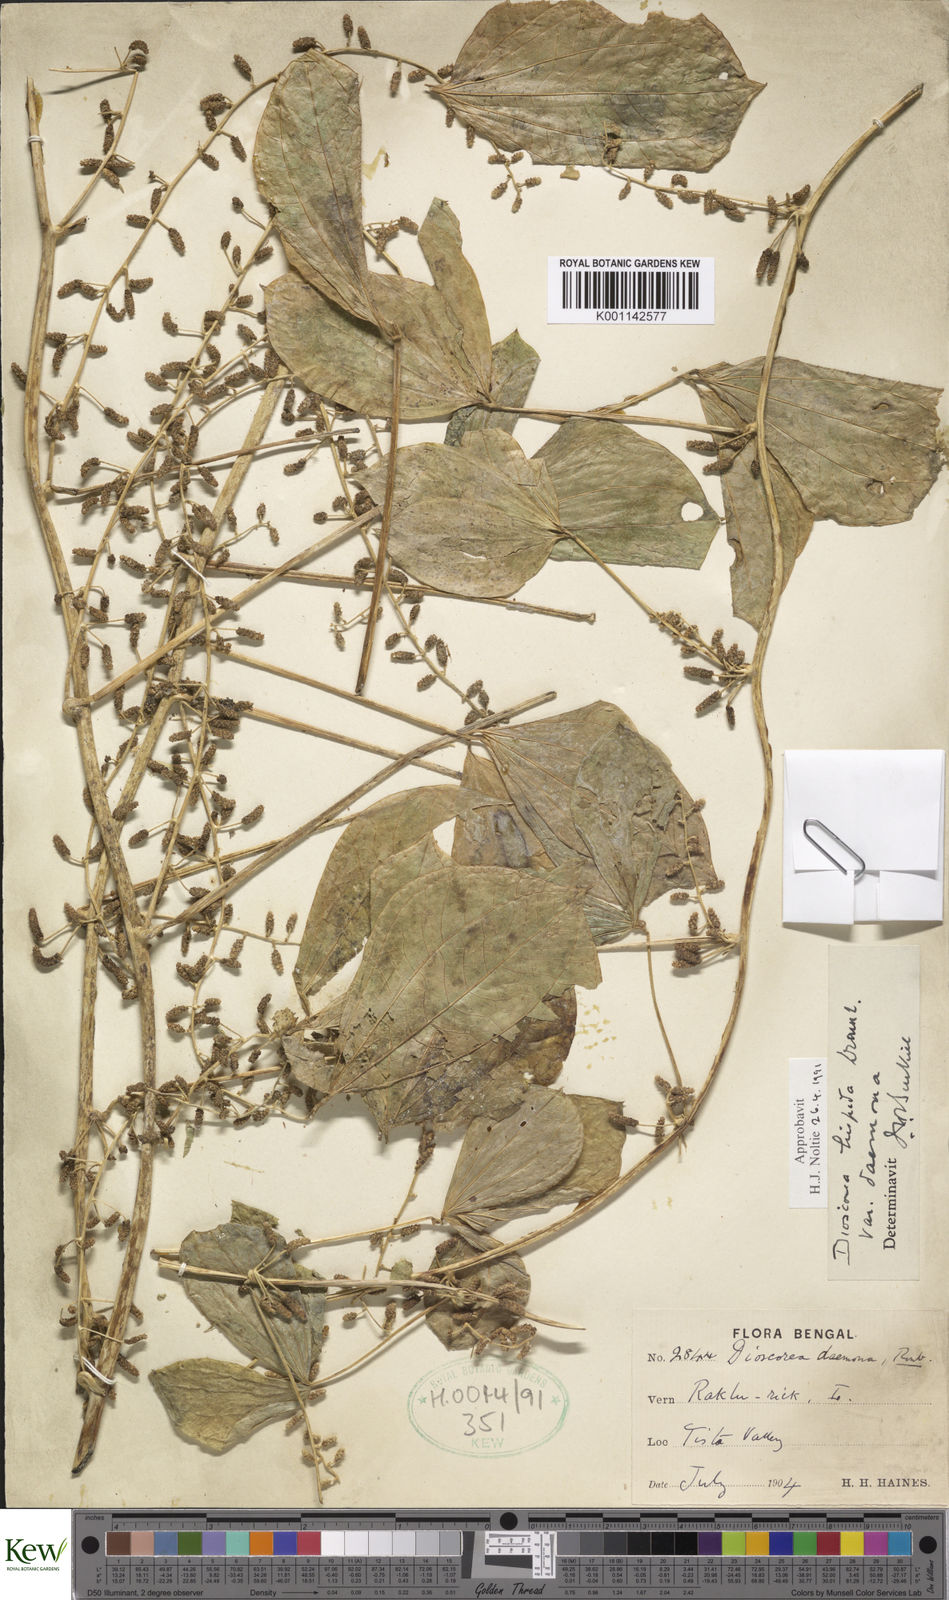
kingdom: Plantae
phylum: Tracheophyta
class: Liliopsida
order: Dioscoreales
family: Dioscoreaceae
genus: Dioscorea
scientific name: Dioscorea pentaphylla
